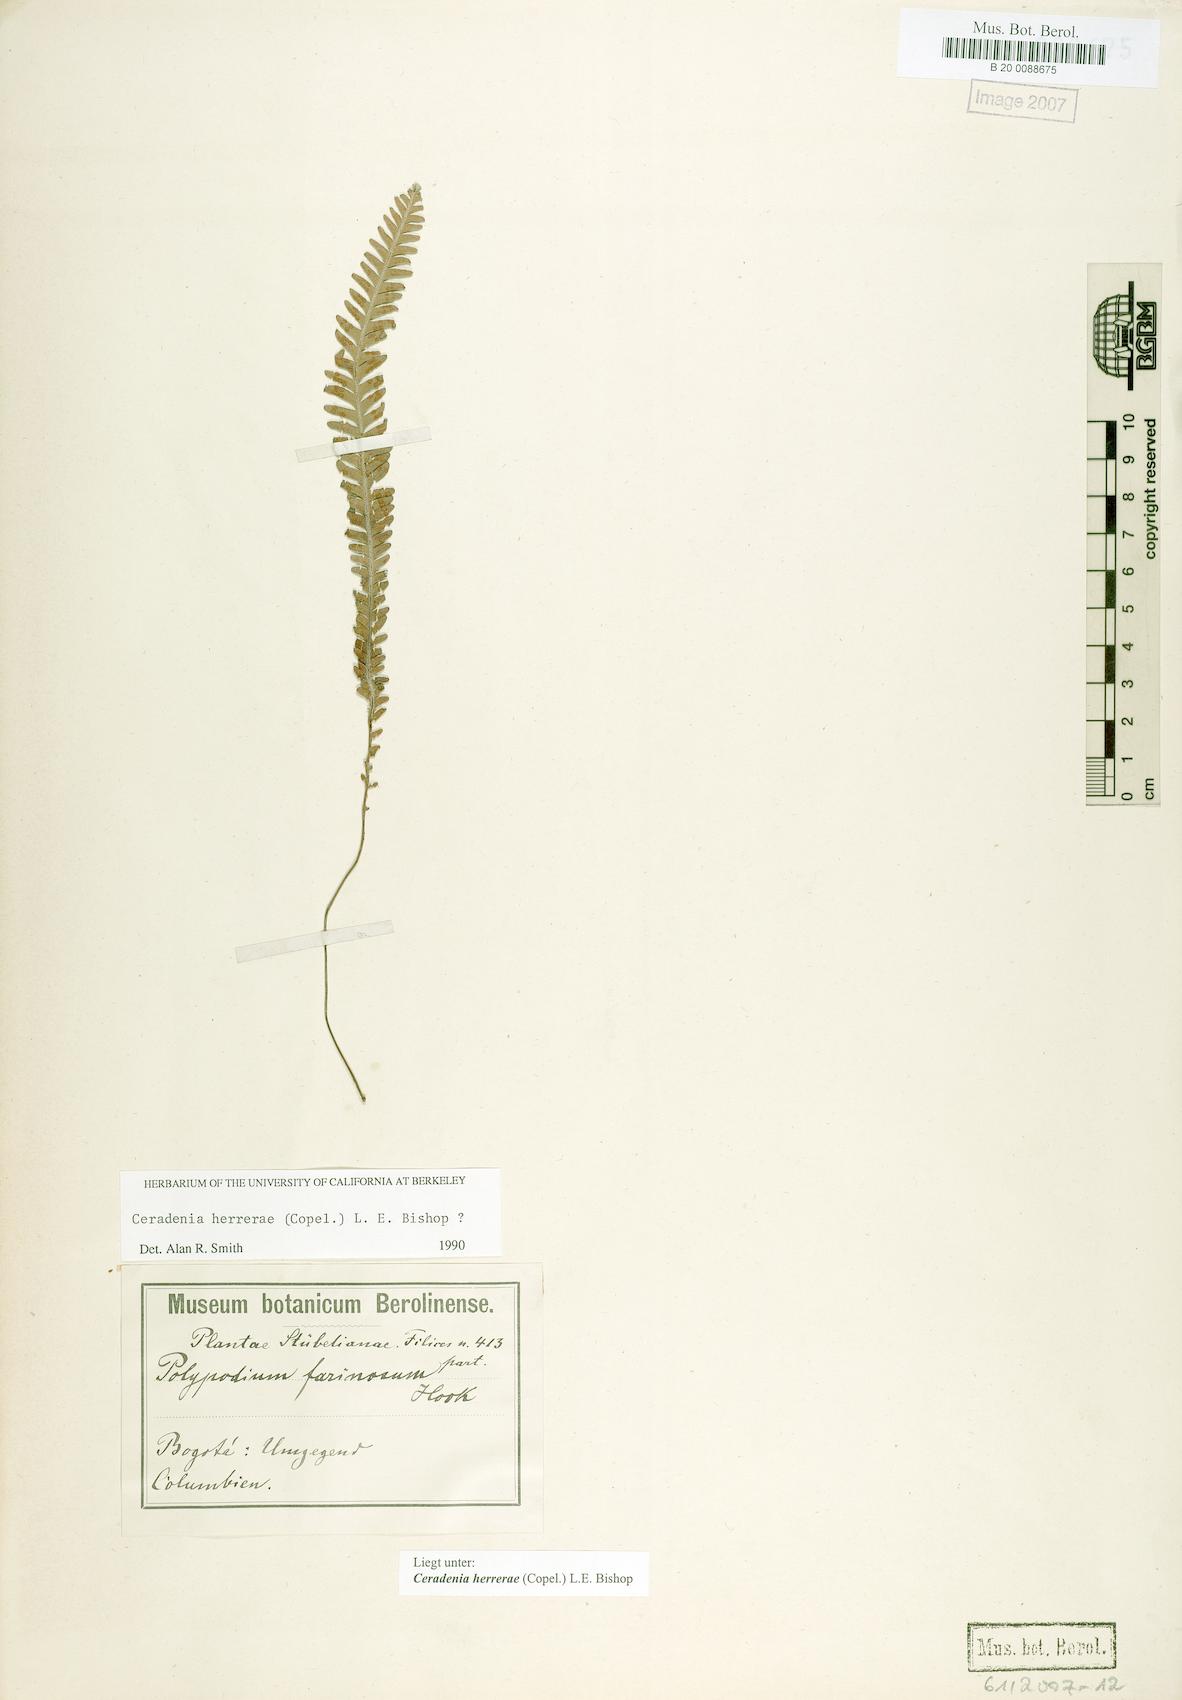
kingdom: Plantae
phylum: Tracheophyta
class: Polypodiopsida
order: Polypodiales
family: Polypodiaceae
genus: Ceradenia
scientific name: Ceradenia herrerae
